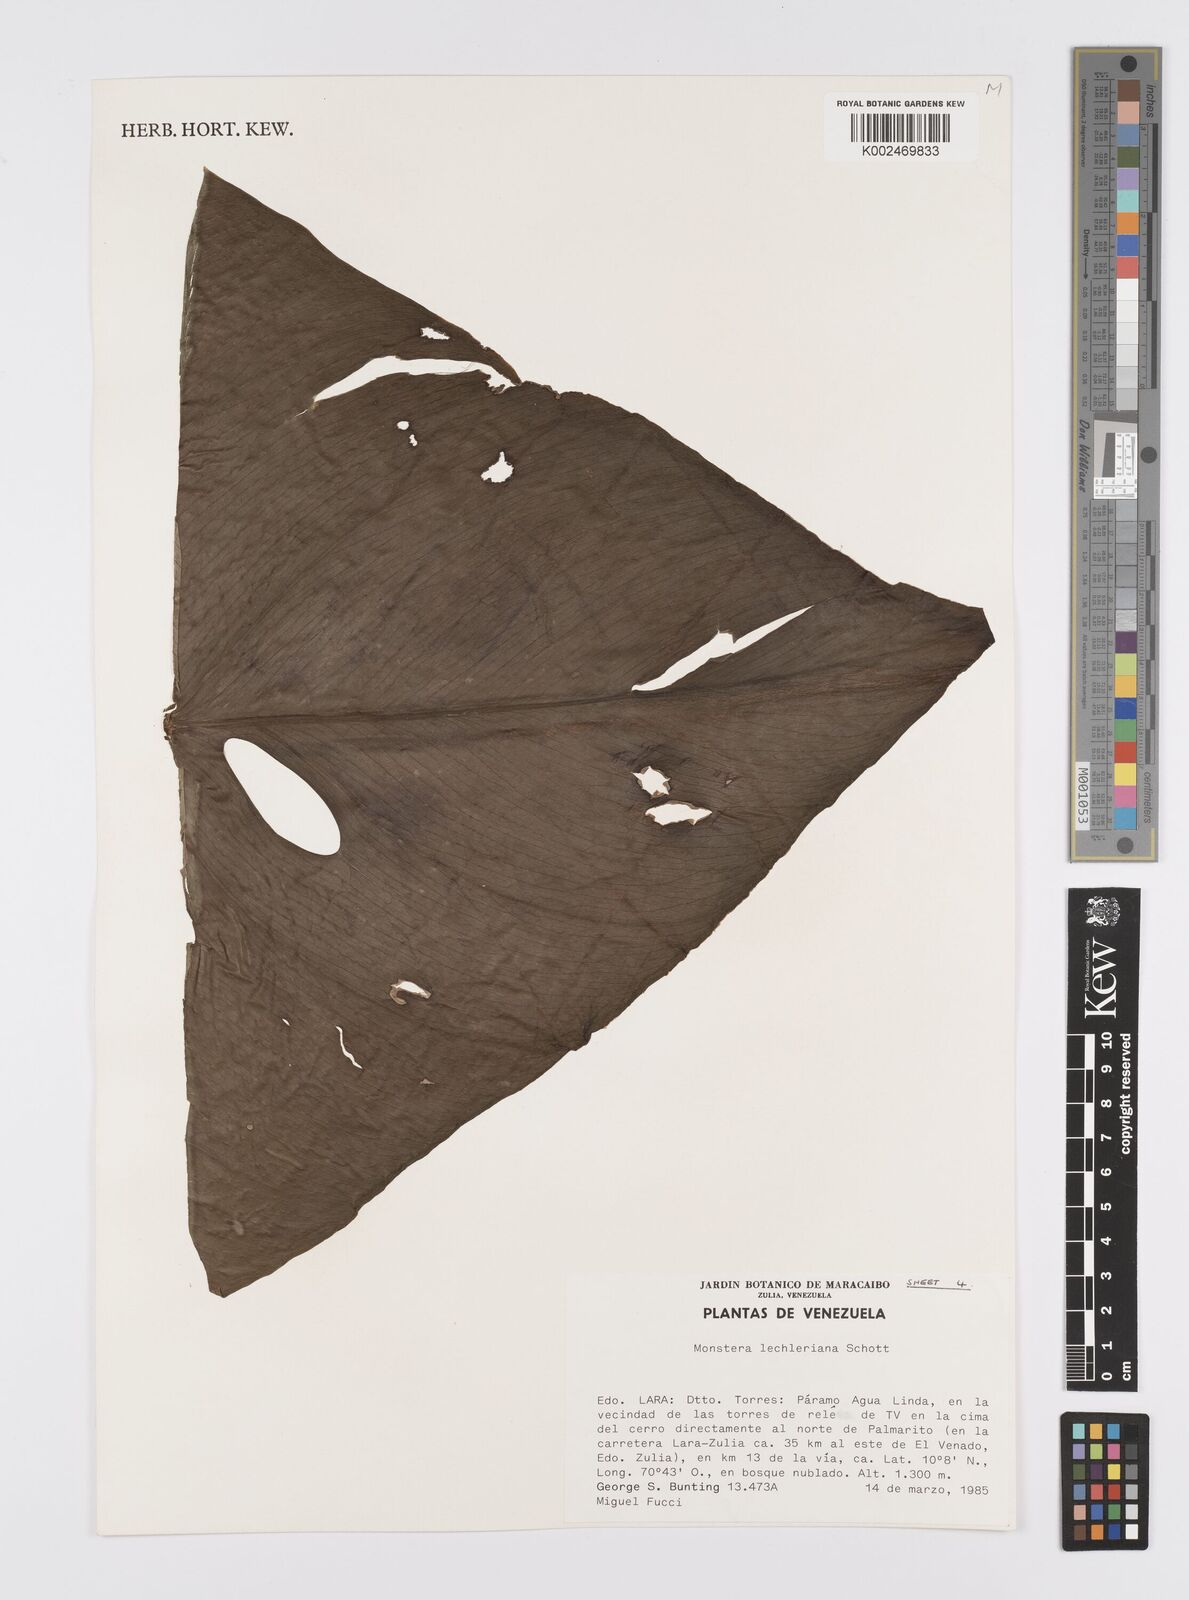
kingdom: Plantae
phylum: Tracheophyta
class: Liliopsida
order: Alismatales
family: Araceae
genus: Monstera
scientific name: Monstera lechleriana
